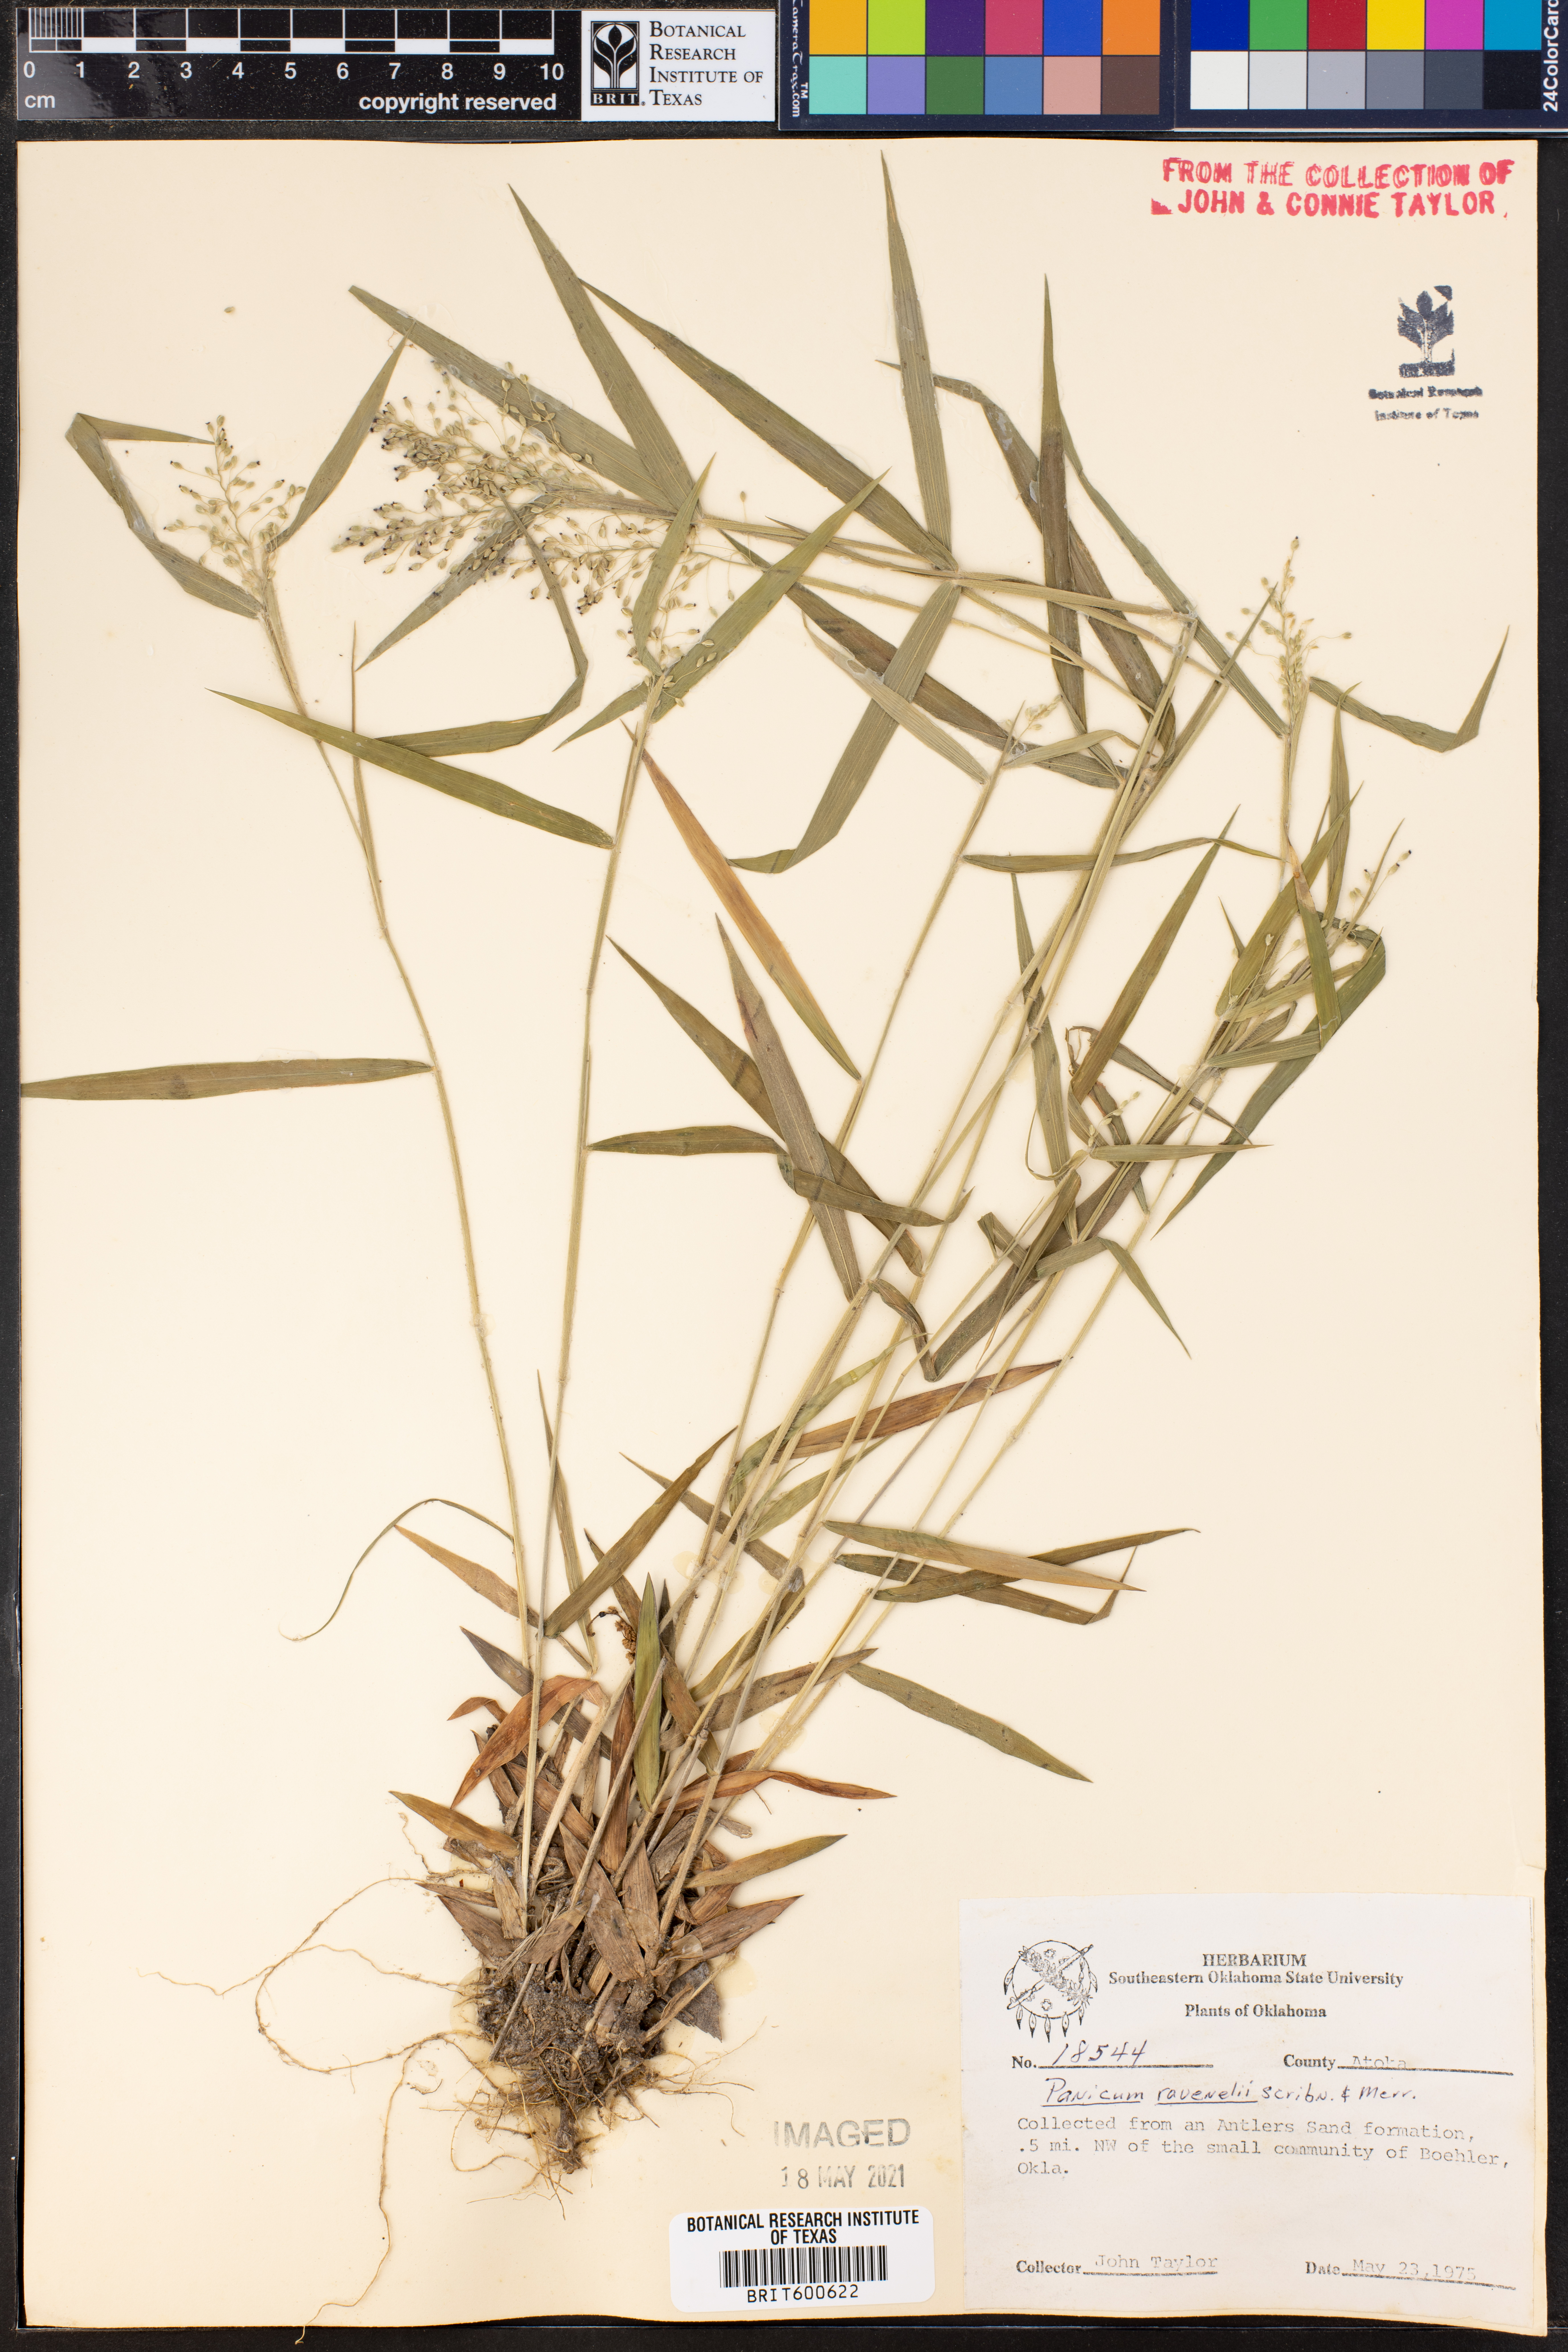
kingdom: Plantae
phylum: Tracheophyta
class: Liliopsida
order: Poales
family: Poaceae
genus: Dichanthelium
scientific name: Dichanthelium ravenelii
